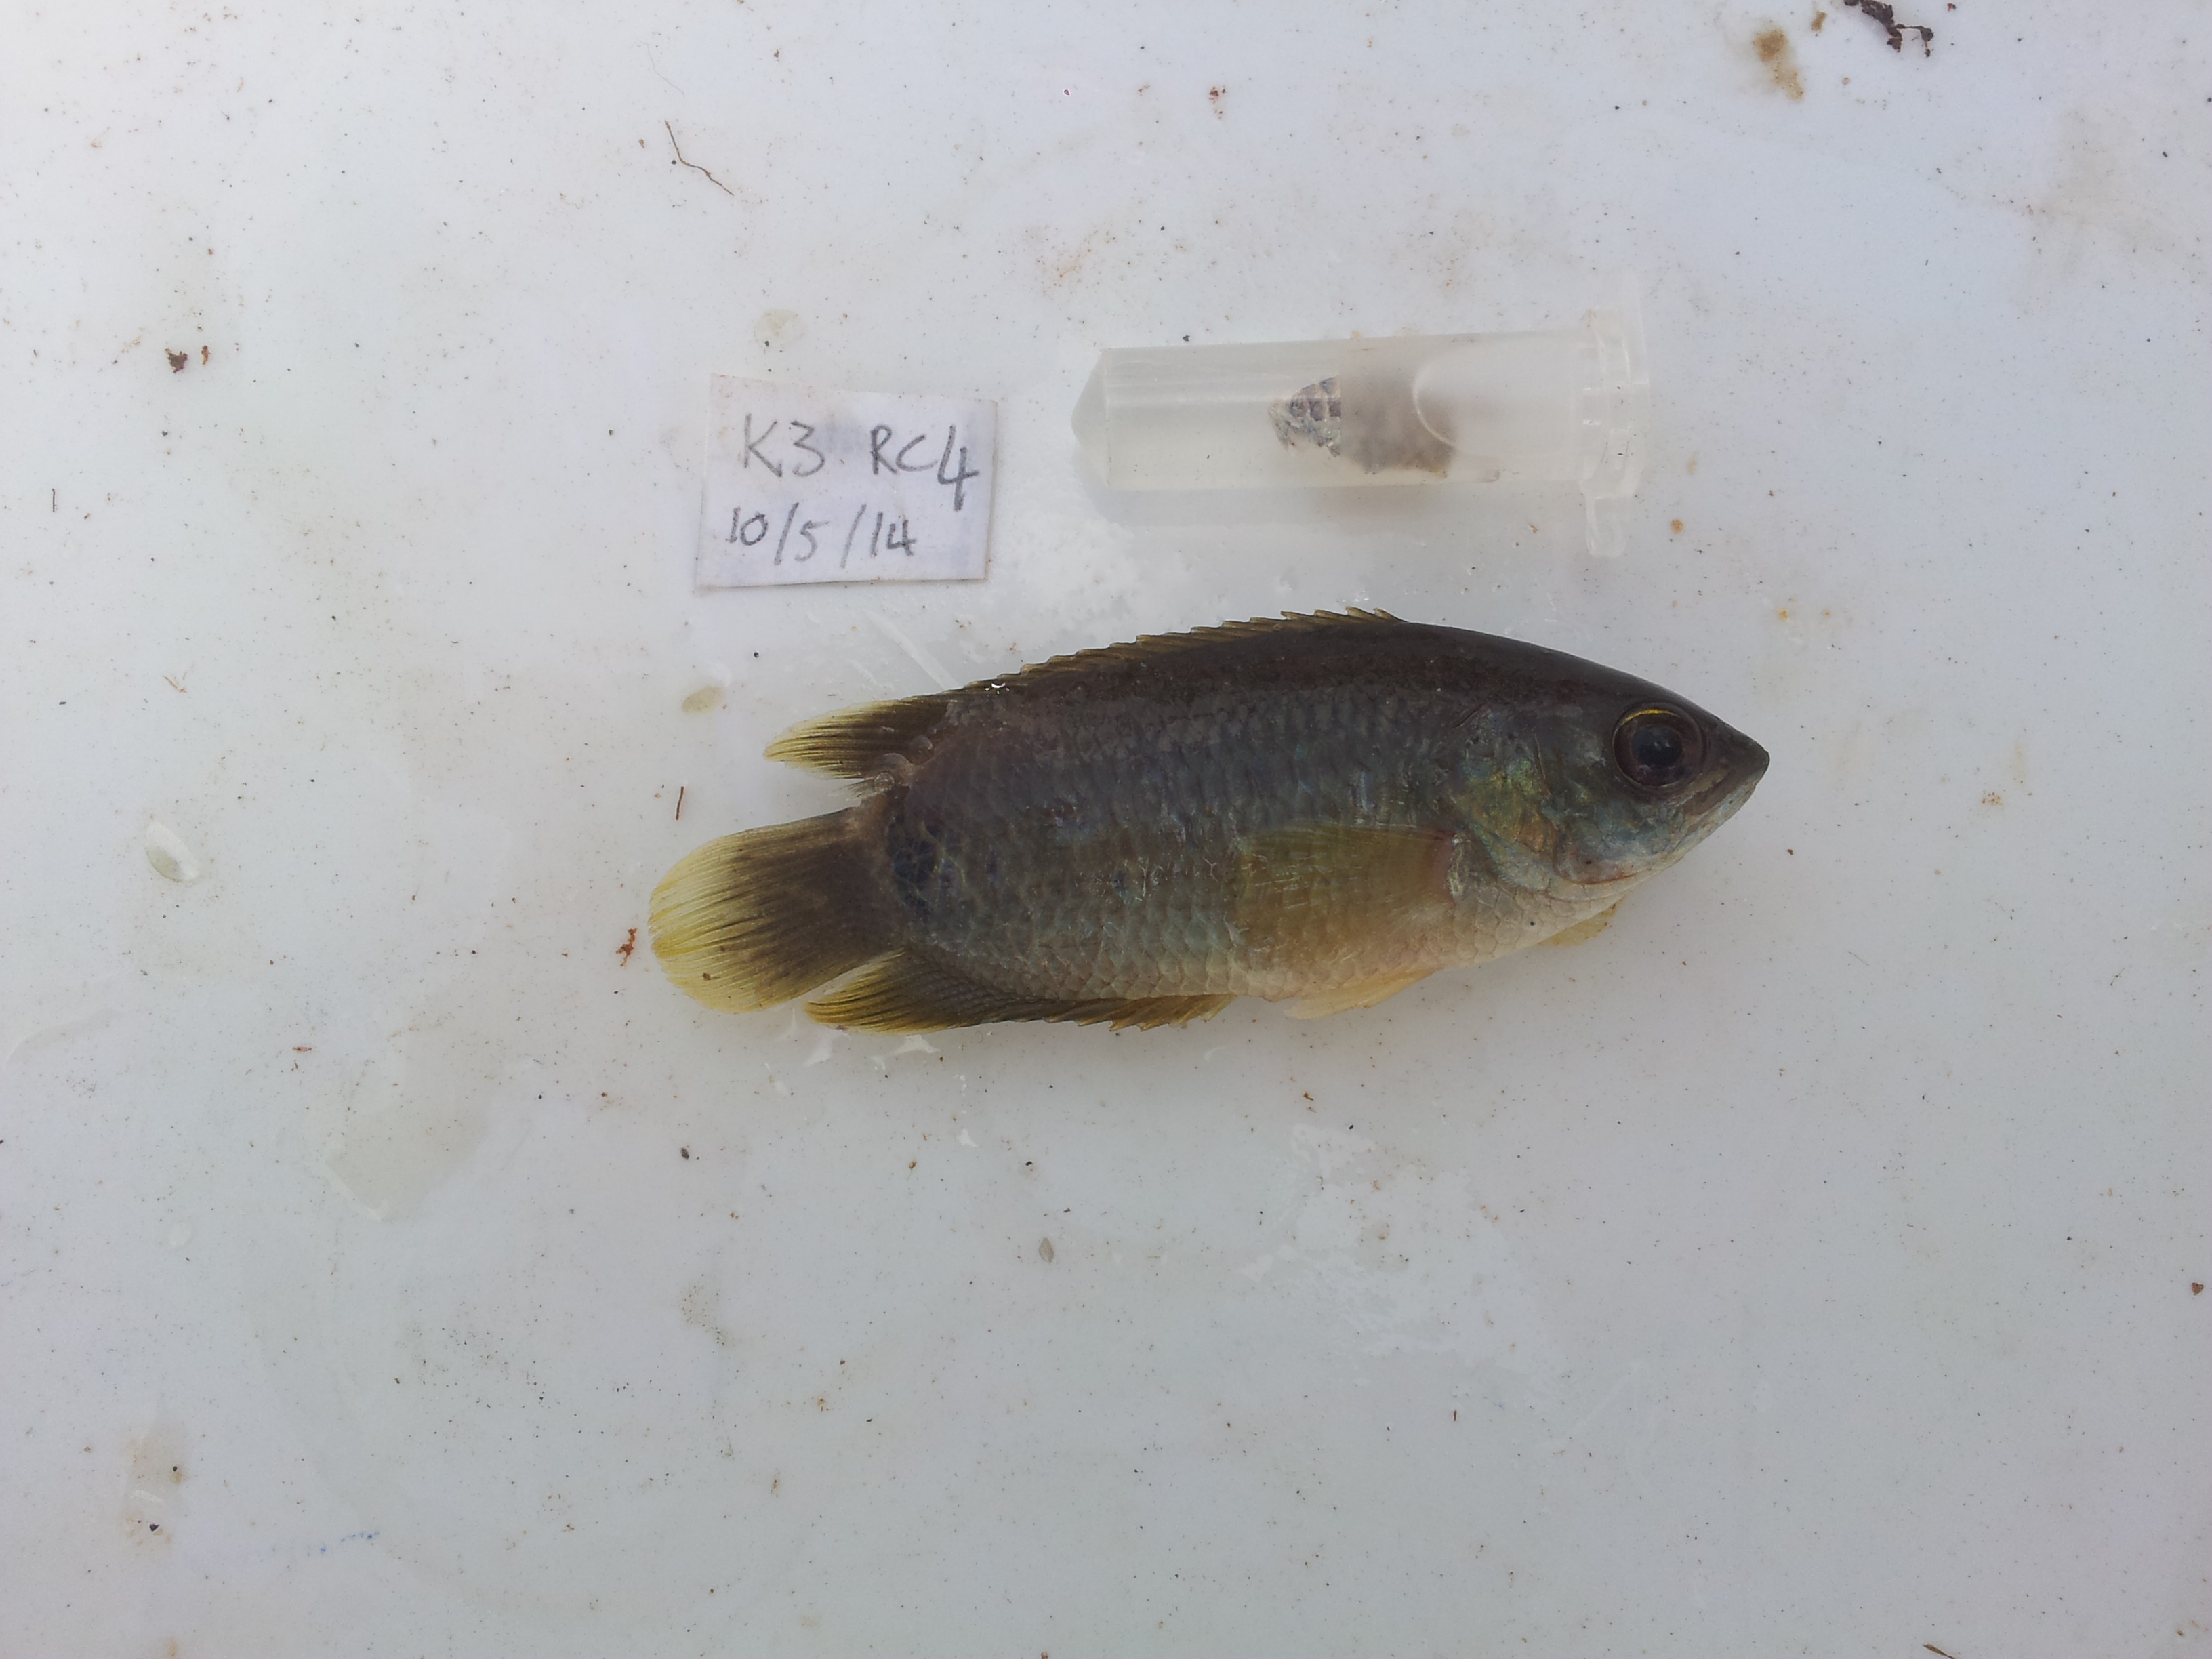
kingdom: Animalia
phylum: Chordata
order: Perciformes
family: Anabantidae
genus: Ctenopoma
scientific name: Ctenopoma kingsleyae
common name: Climbing perch
